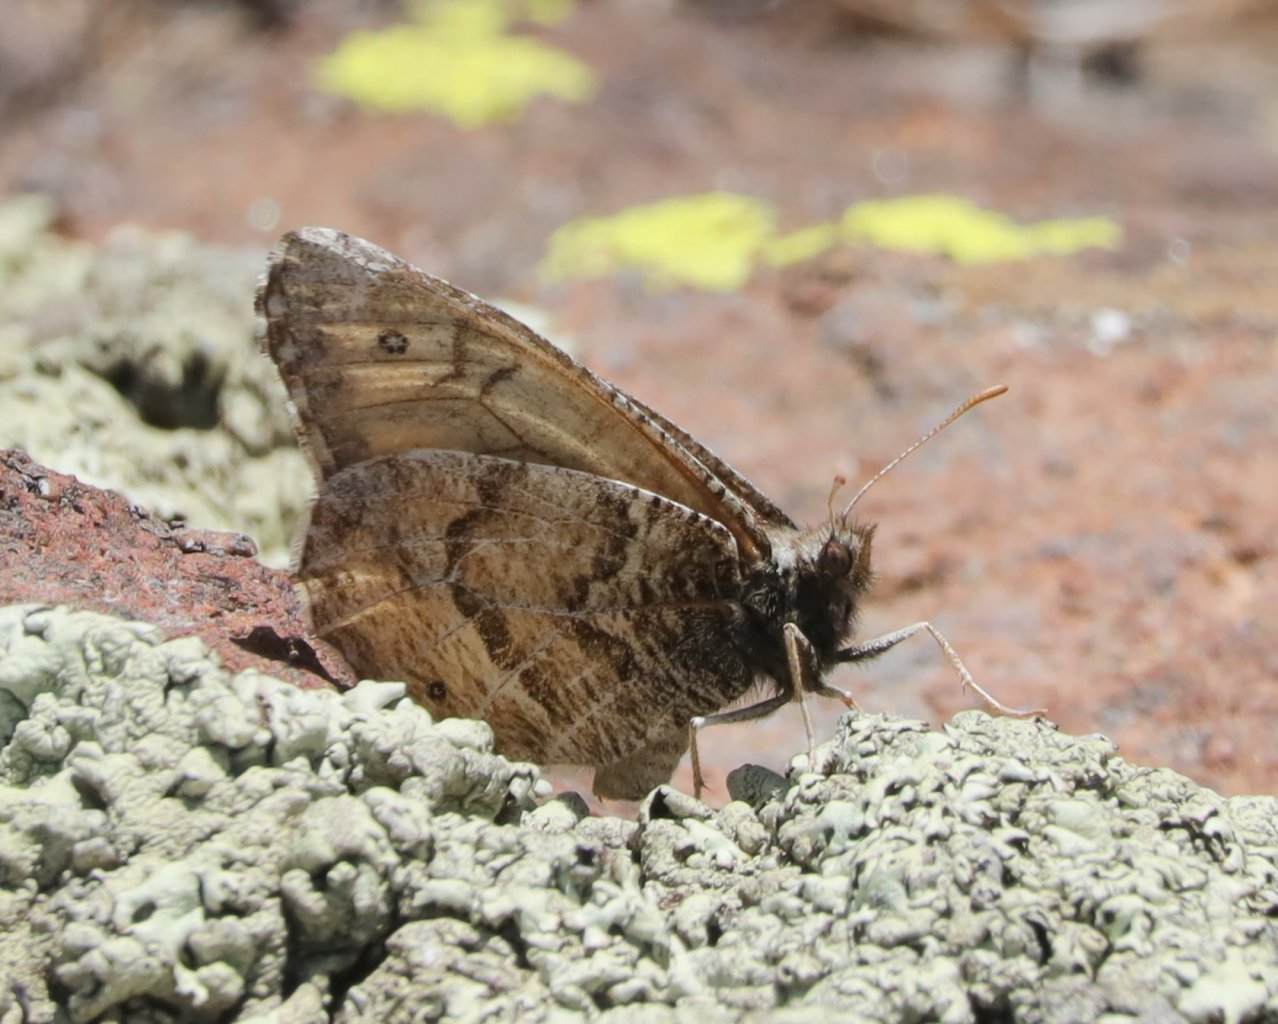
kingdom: Animalia
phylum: Arthropoda
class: Insecta
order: Lepidoptera
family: Nymphalidae
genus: Oeneis
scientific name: Oeneis alberta
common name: Alberta Arctic
